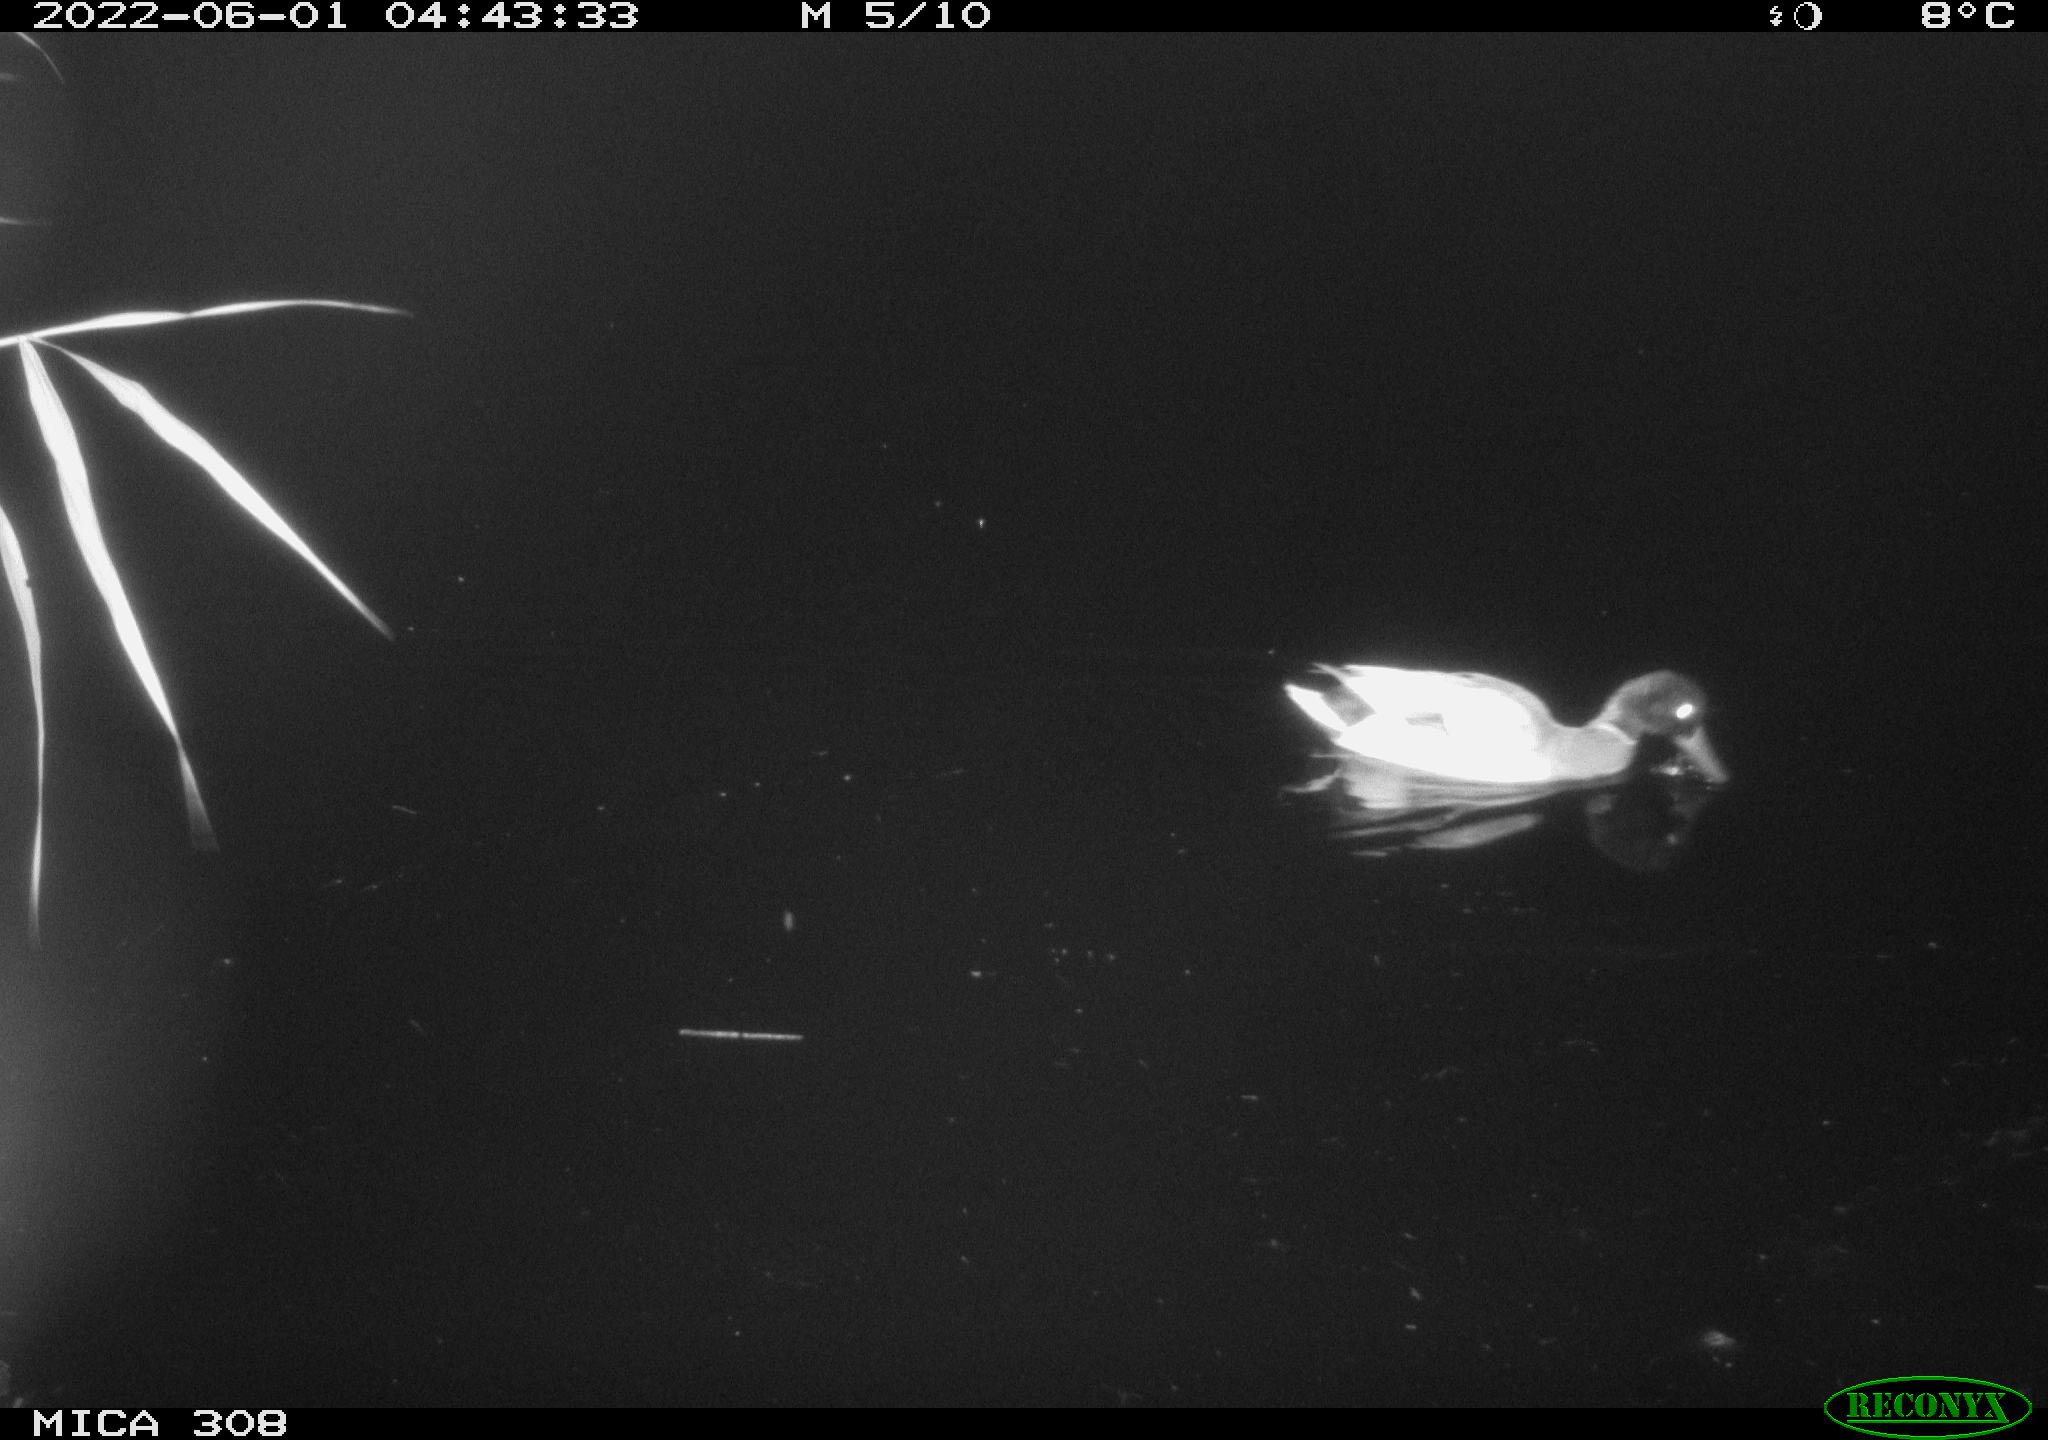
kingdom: Animalia
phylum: Chordata
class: Aves
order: Anseriformes
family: Anatidae
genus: Anas
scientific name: Anas platyrhynchos
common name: Mallard
